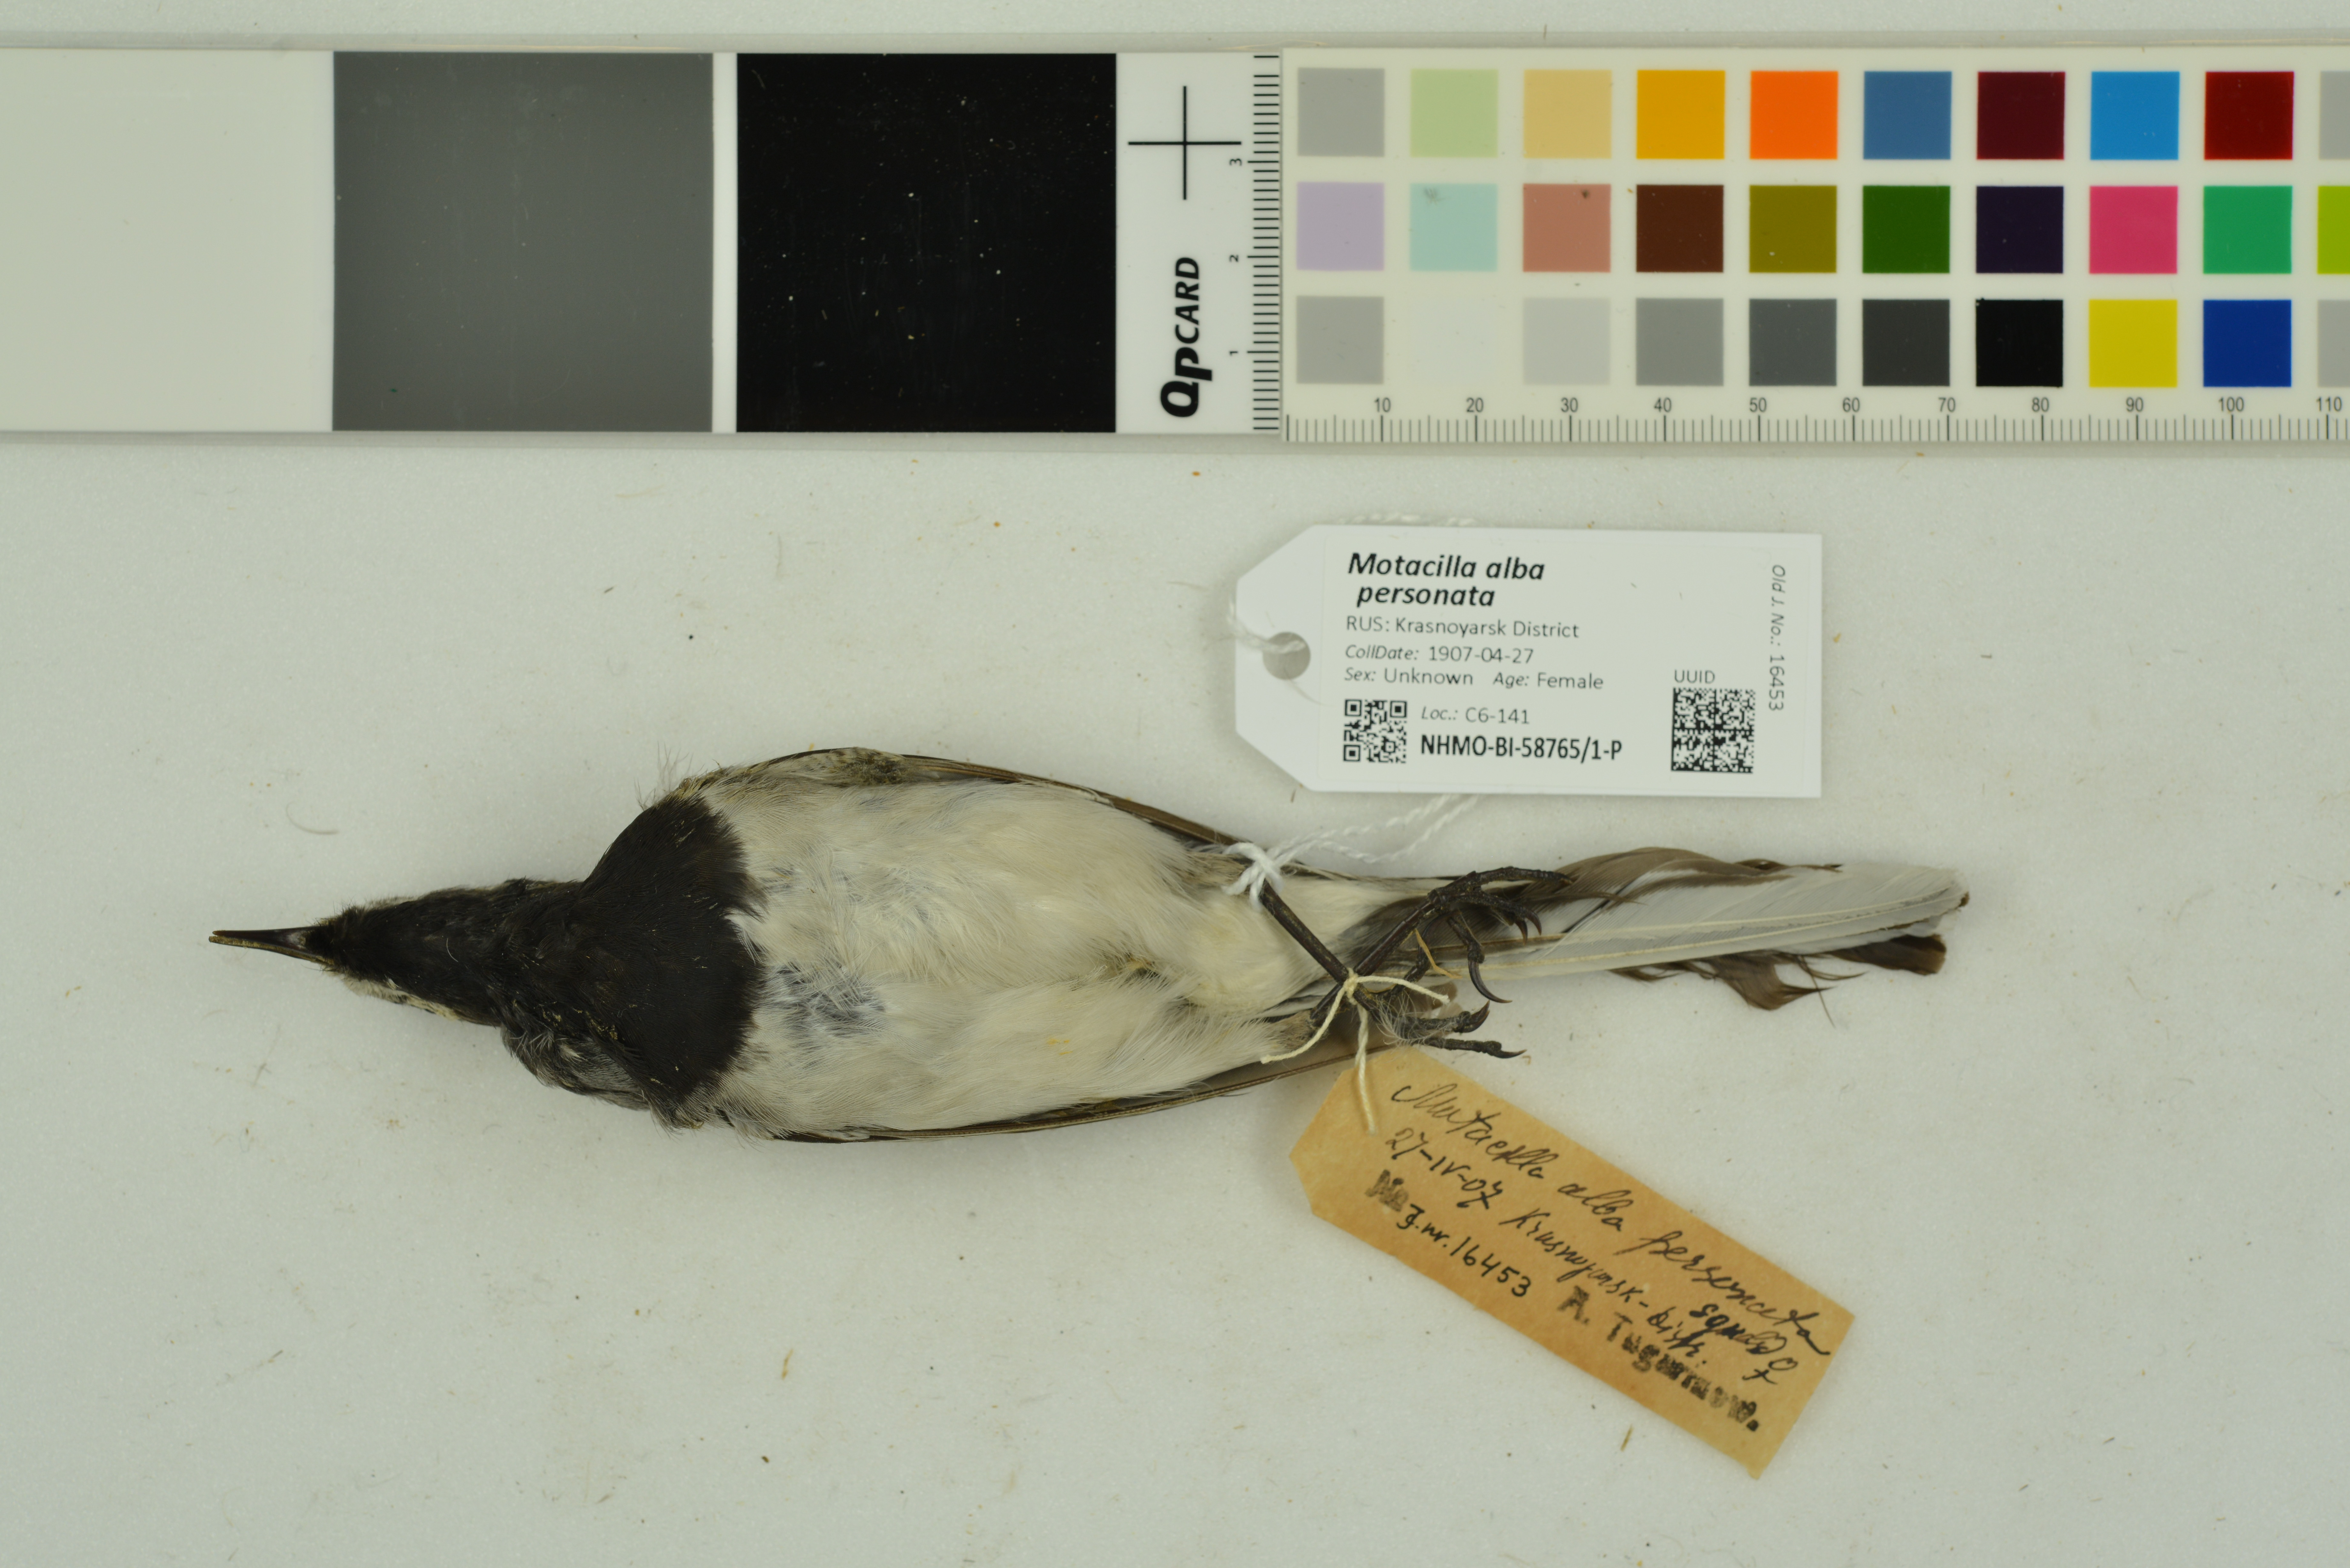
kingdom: Animalia
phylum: Chordata
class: Aves
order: Passeriformes
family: Motacillidae
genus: Motacilla
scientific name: Motacilla alba
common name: White wagtail
